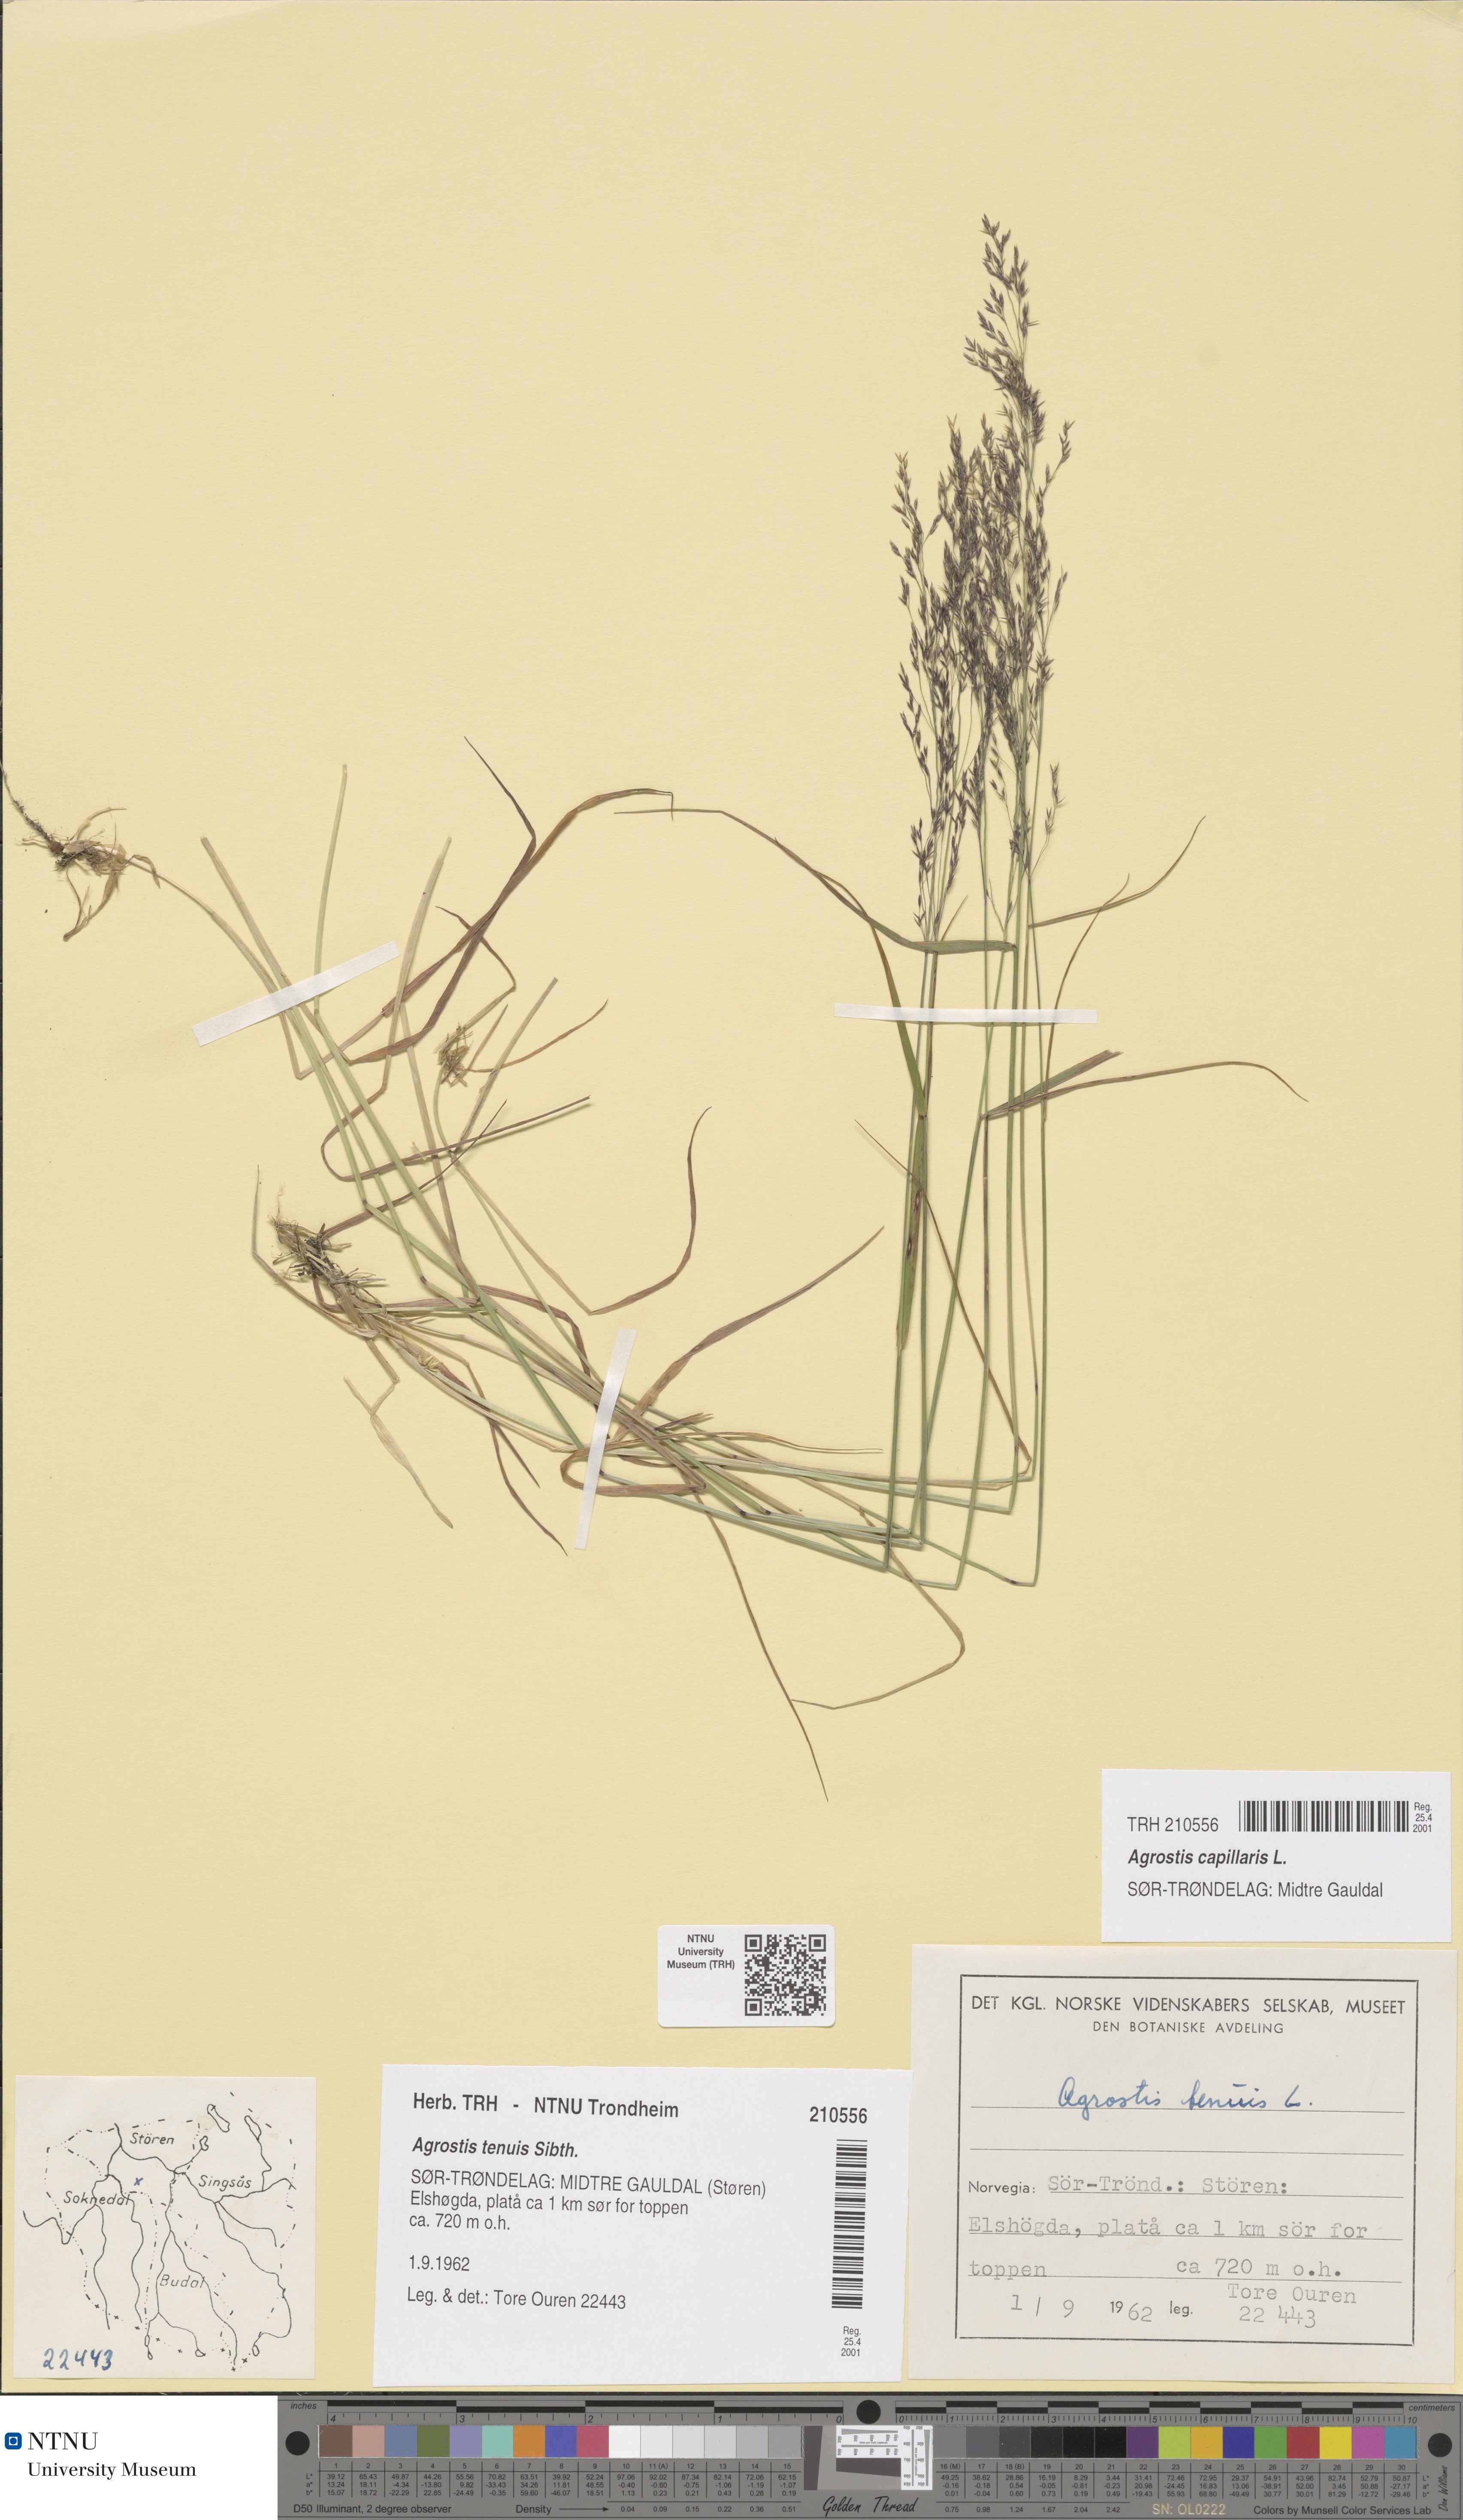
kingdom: Plantae
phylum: Tracheophyta
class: Liliopsida
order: Poales
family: Poaceae
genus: Agrostis
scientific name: Agrostis capillaris
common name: Colonial bentgrass
